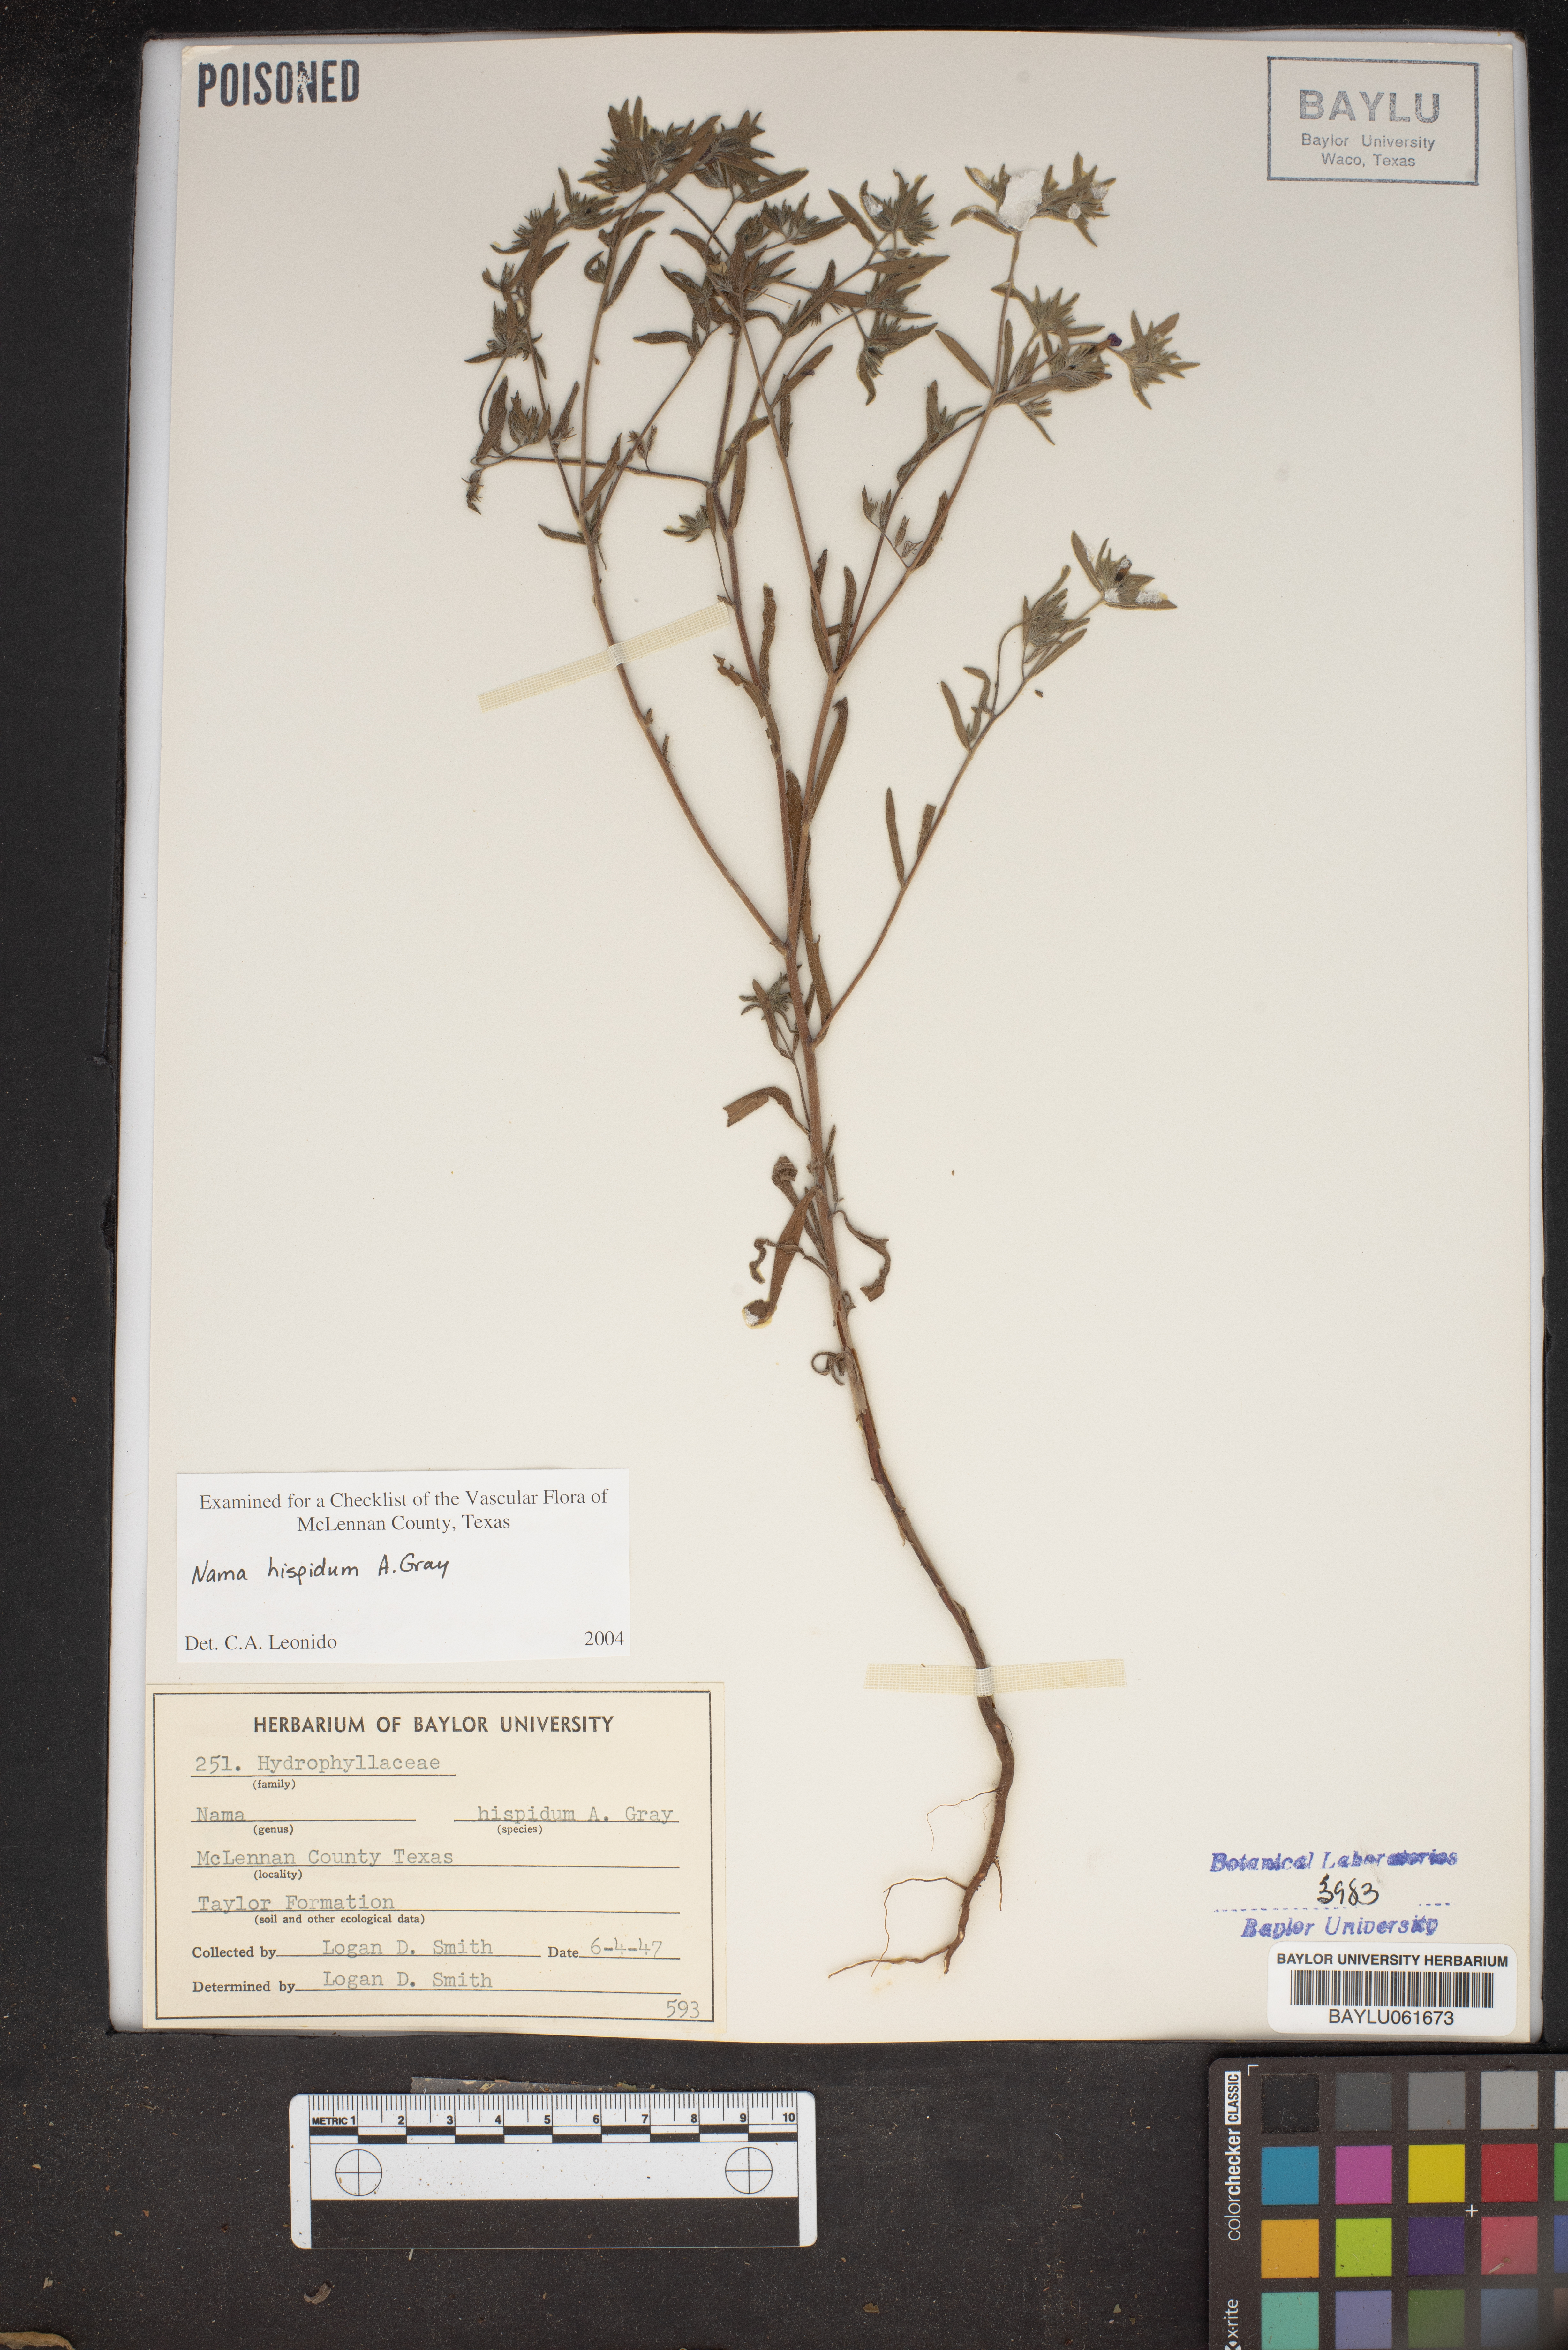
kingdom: Plantae
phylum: Tracheophyta
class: Magnoliopsida
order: Boraginales
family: Namaceae
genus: Nama
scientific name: Nama hispida
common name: Bristly nama
